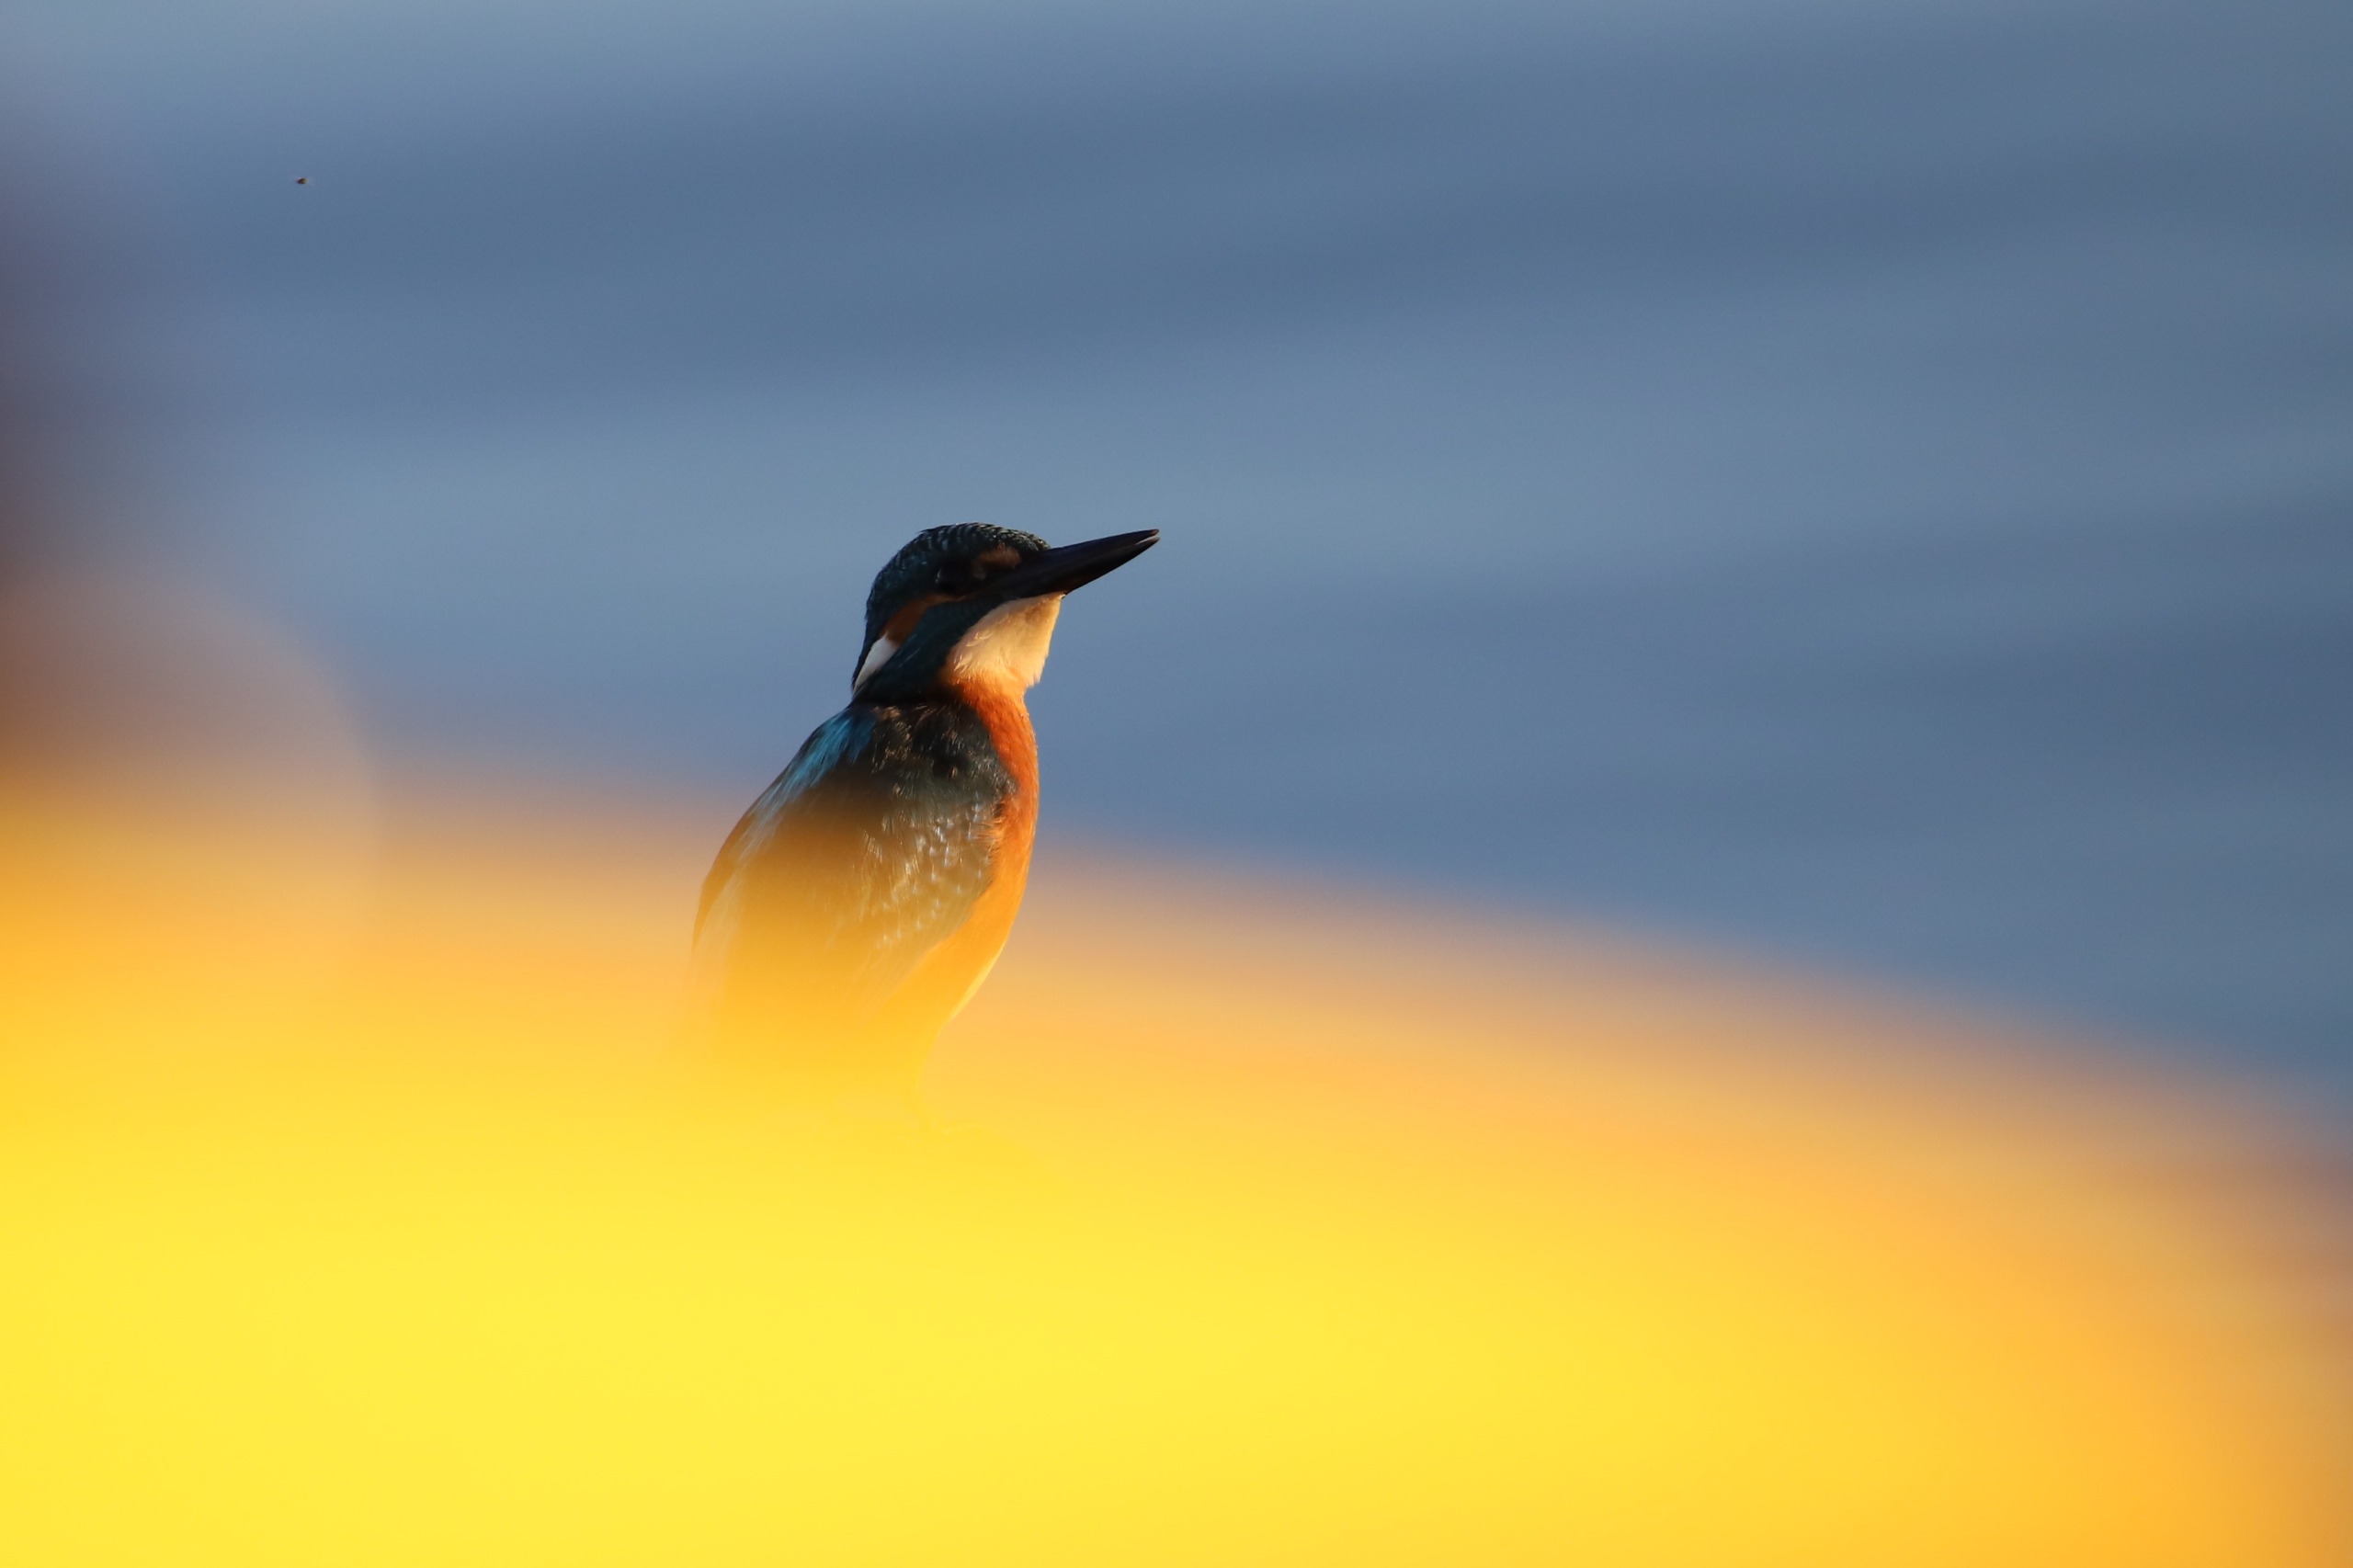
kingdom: Animalia
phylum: Chordata
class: Aves
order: Coraciiformes
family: Alcedinidae
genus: Alcedo
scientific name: Alcedo atthis
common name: Isfugl
